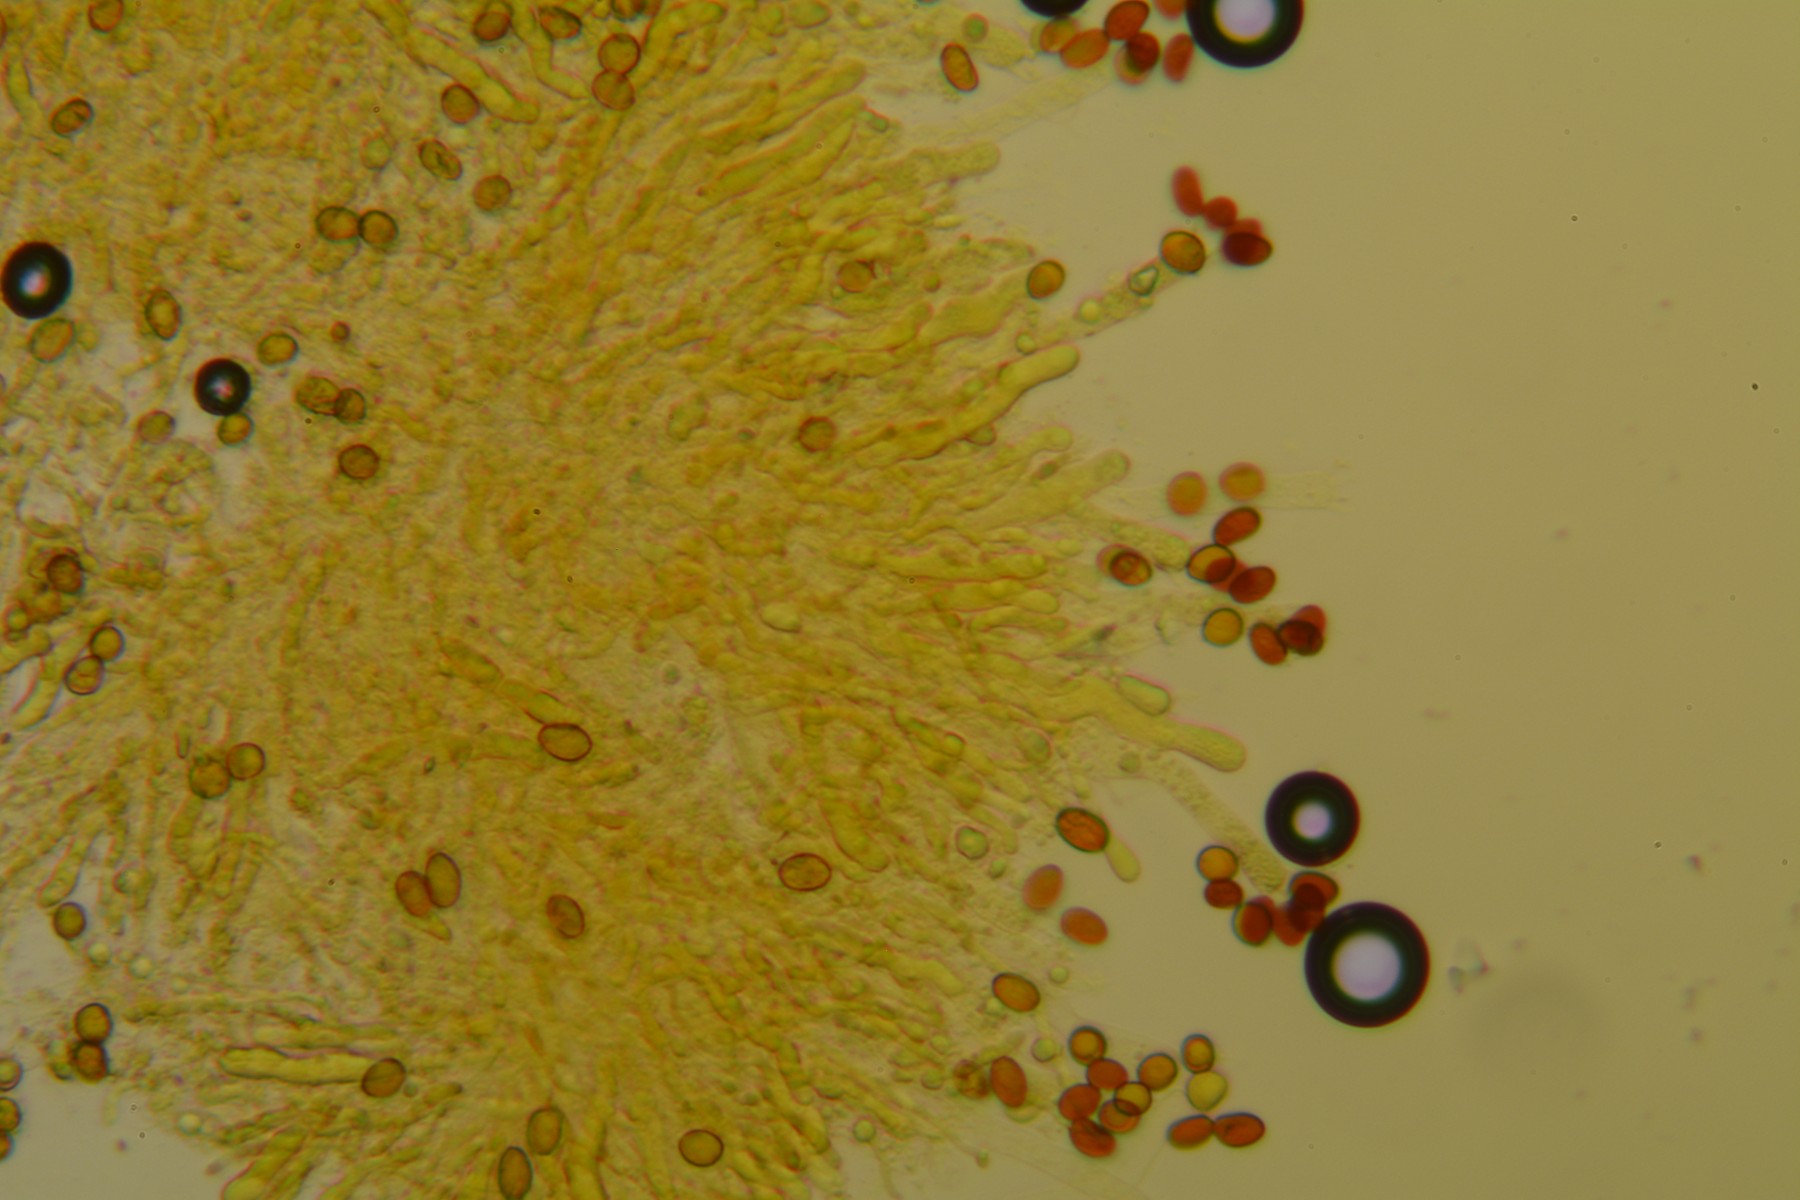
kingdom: Fungi
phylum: Basidiomycota
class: Agaricomycetes
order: Boletales
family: Coniophoraceae
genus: Coniophora
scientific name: Coniophora arida
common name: tynd tømmersvamp
